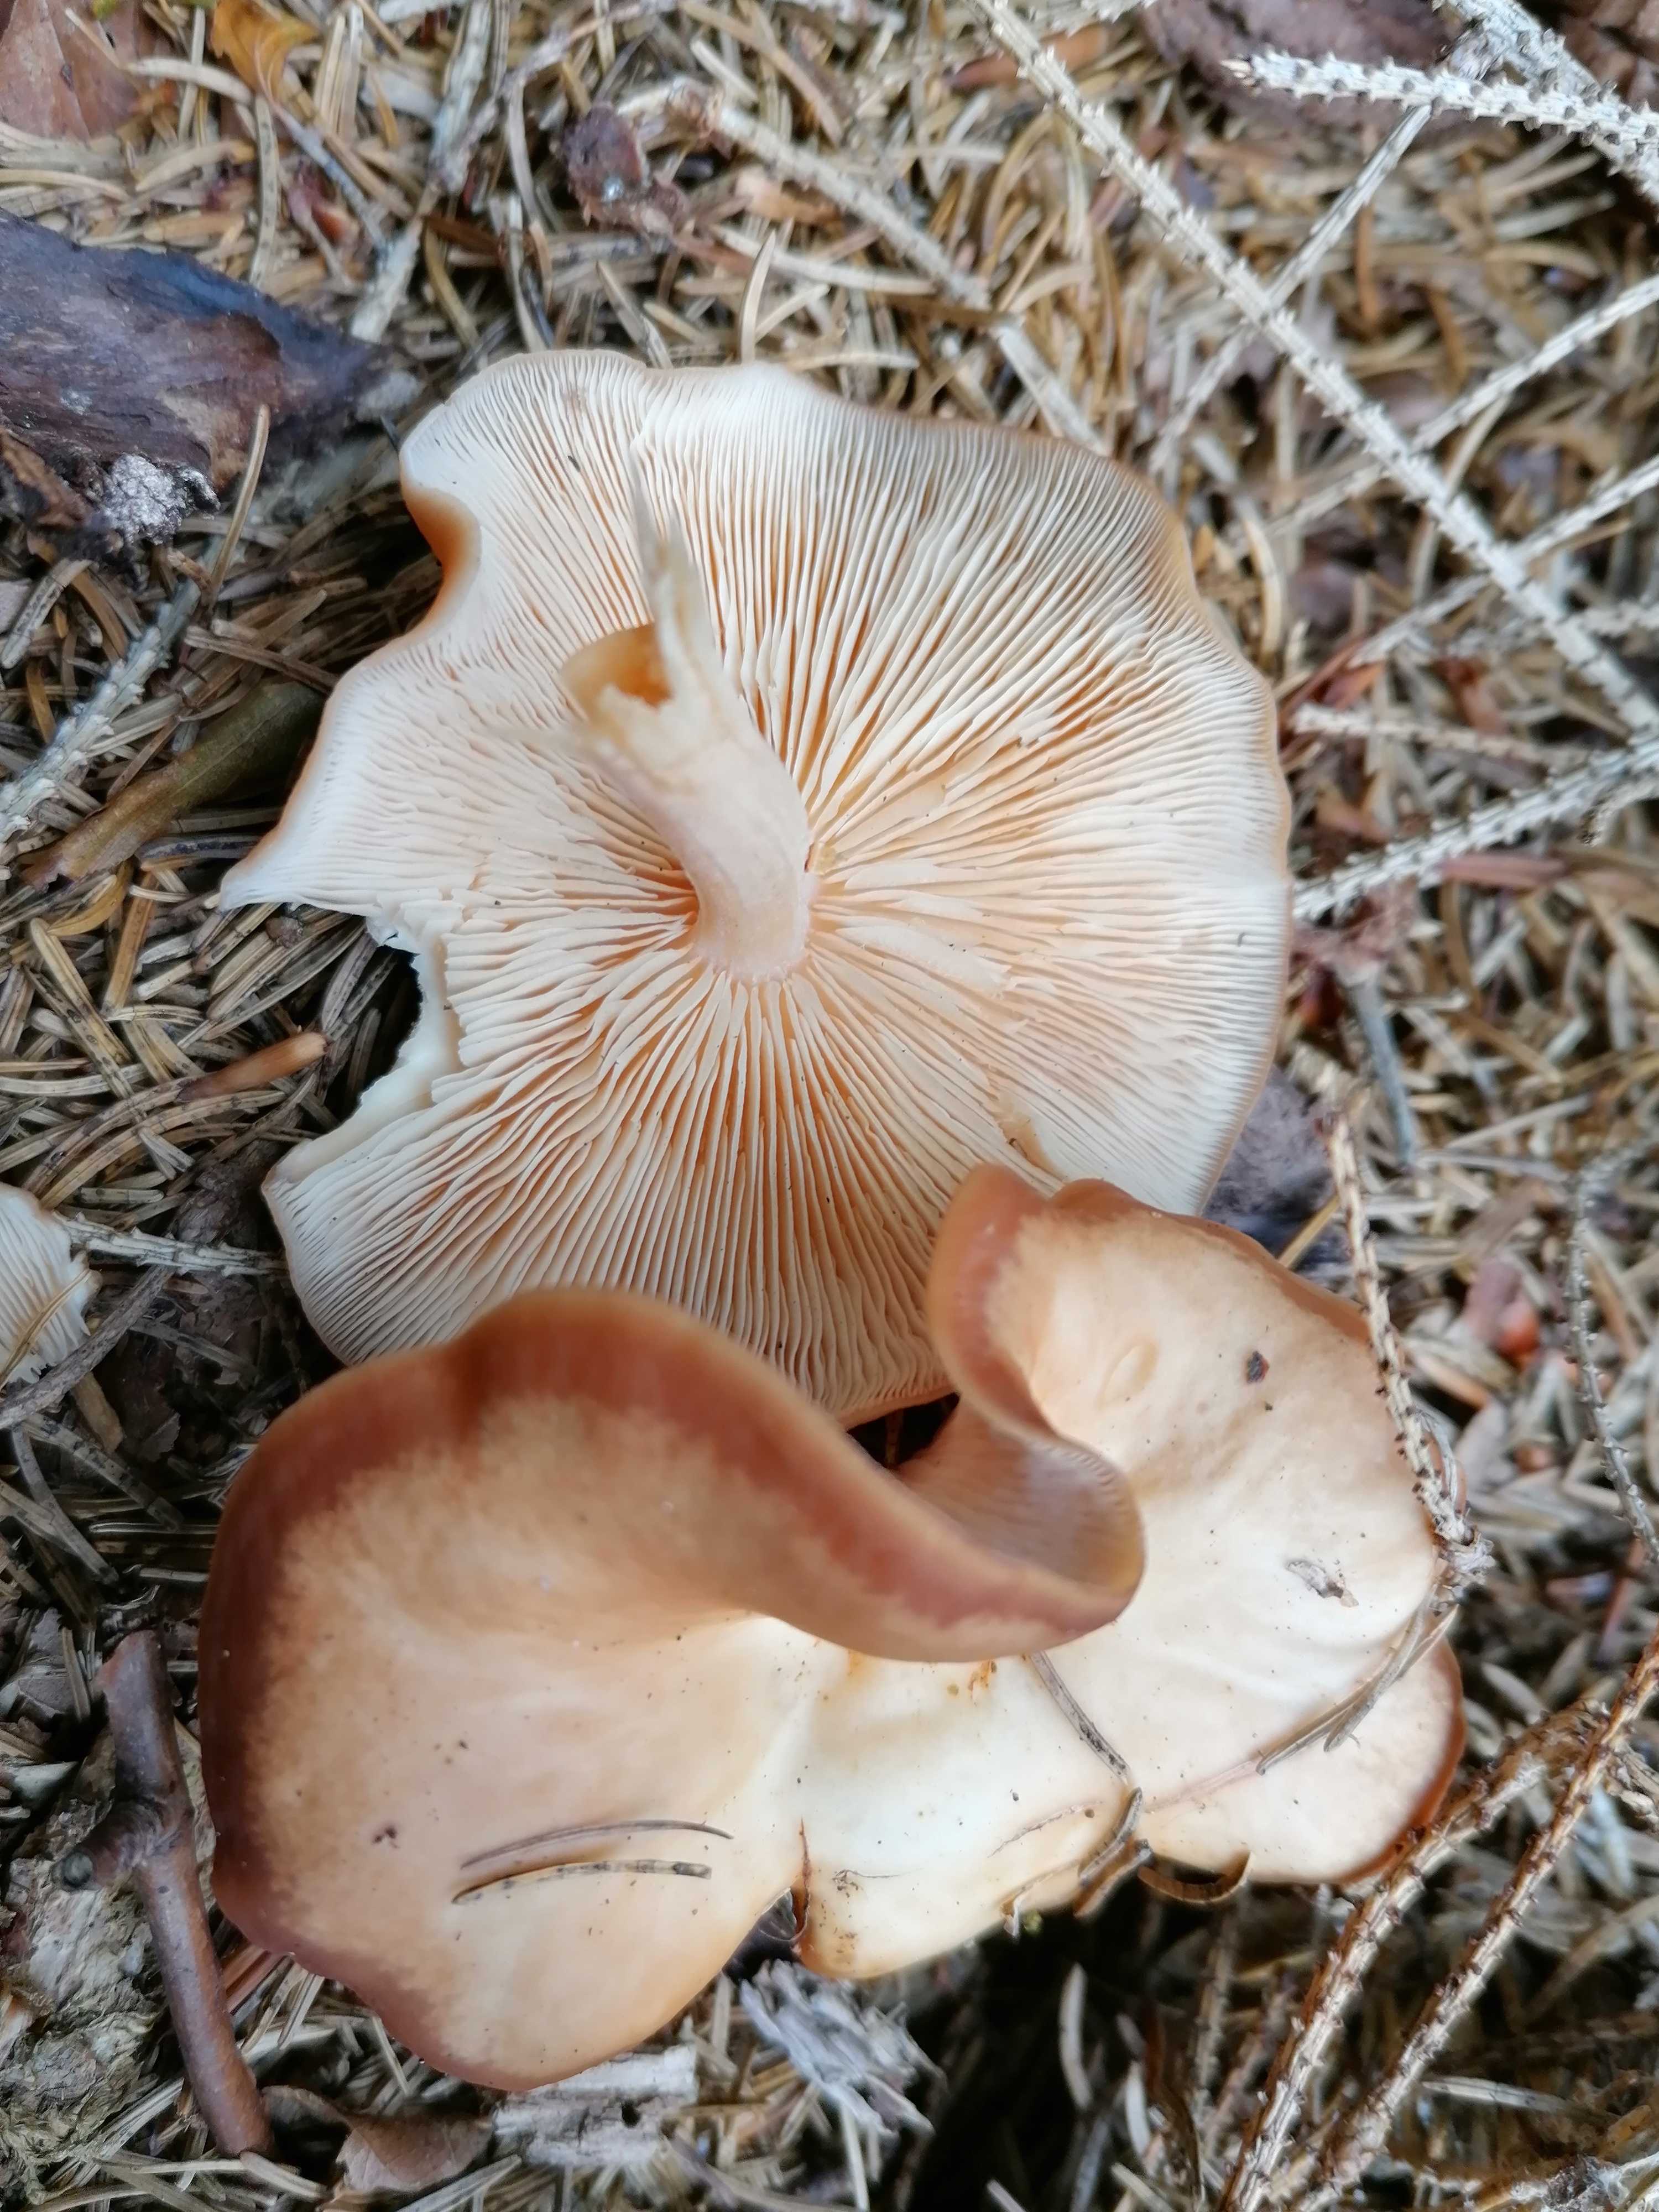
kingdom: Fungi
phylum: Basidiomycota
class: Agaricomycetes
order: Agaricales
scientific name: Agaricales
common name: champignonordenen
